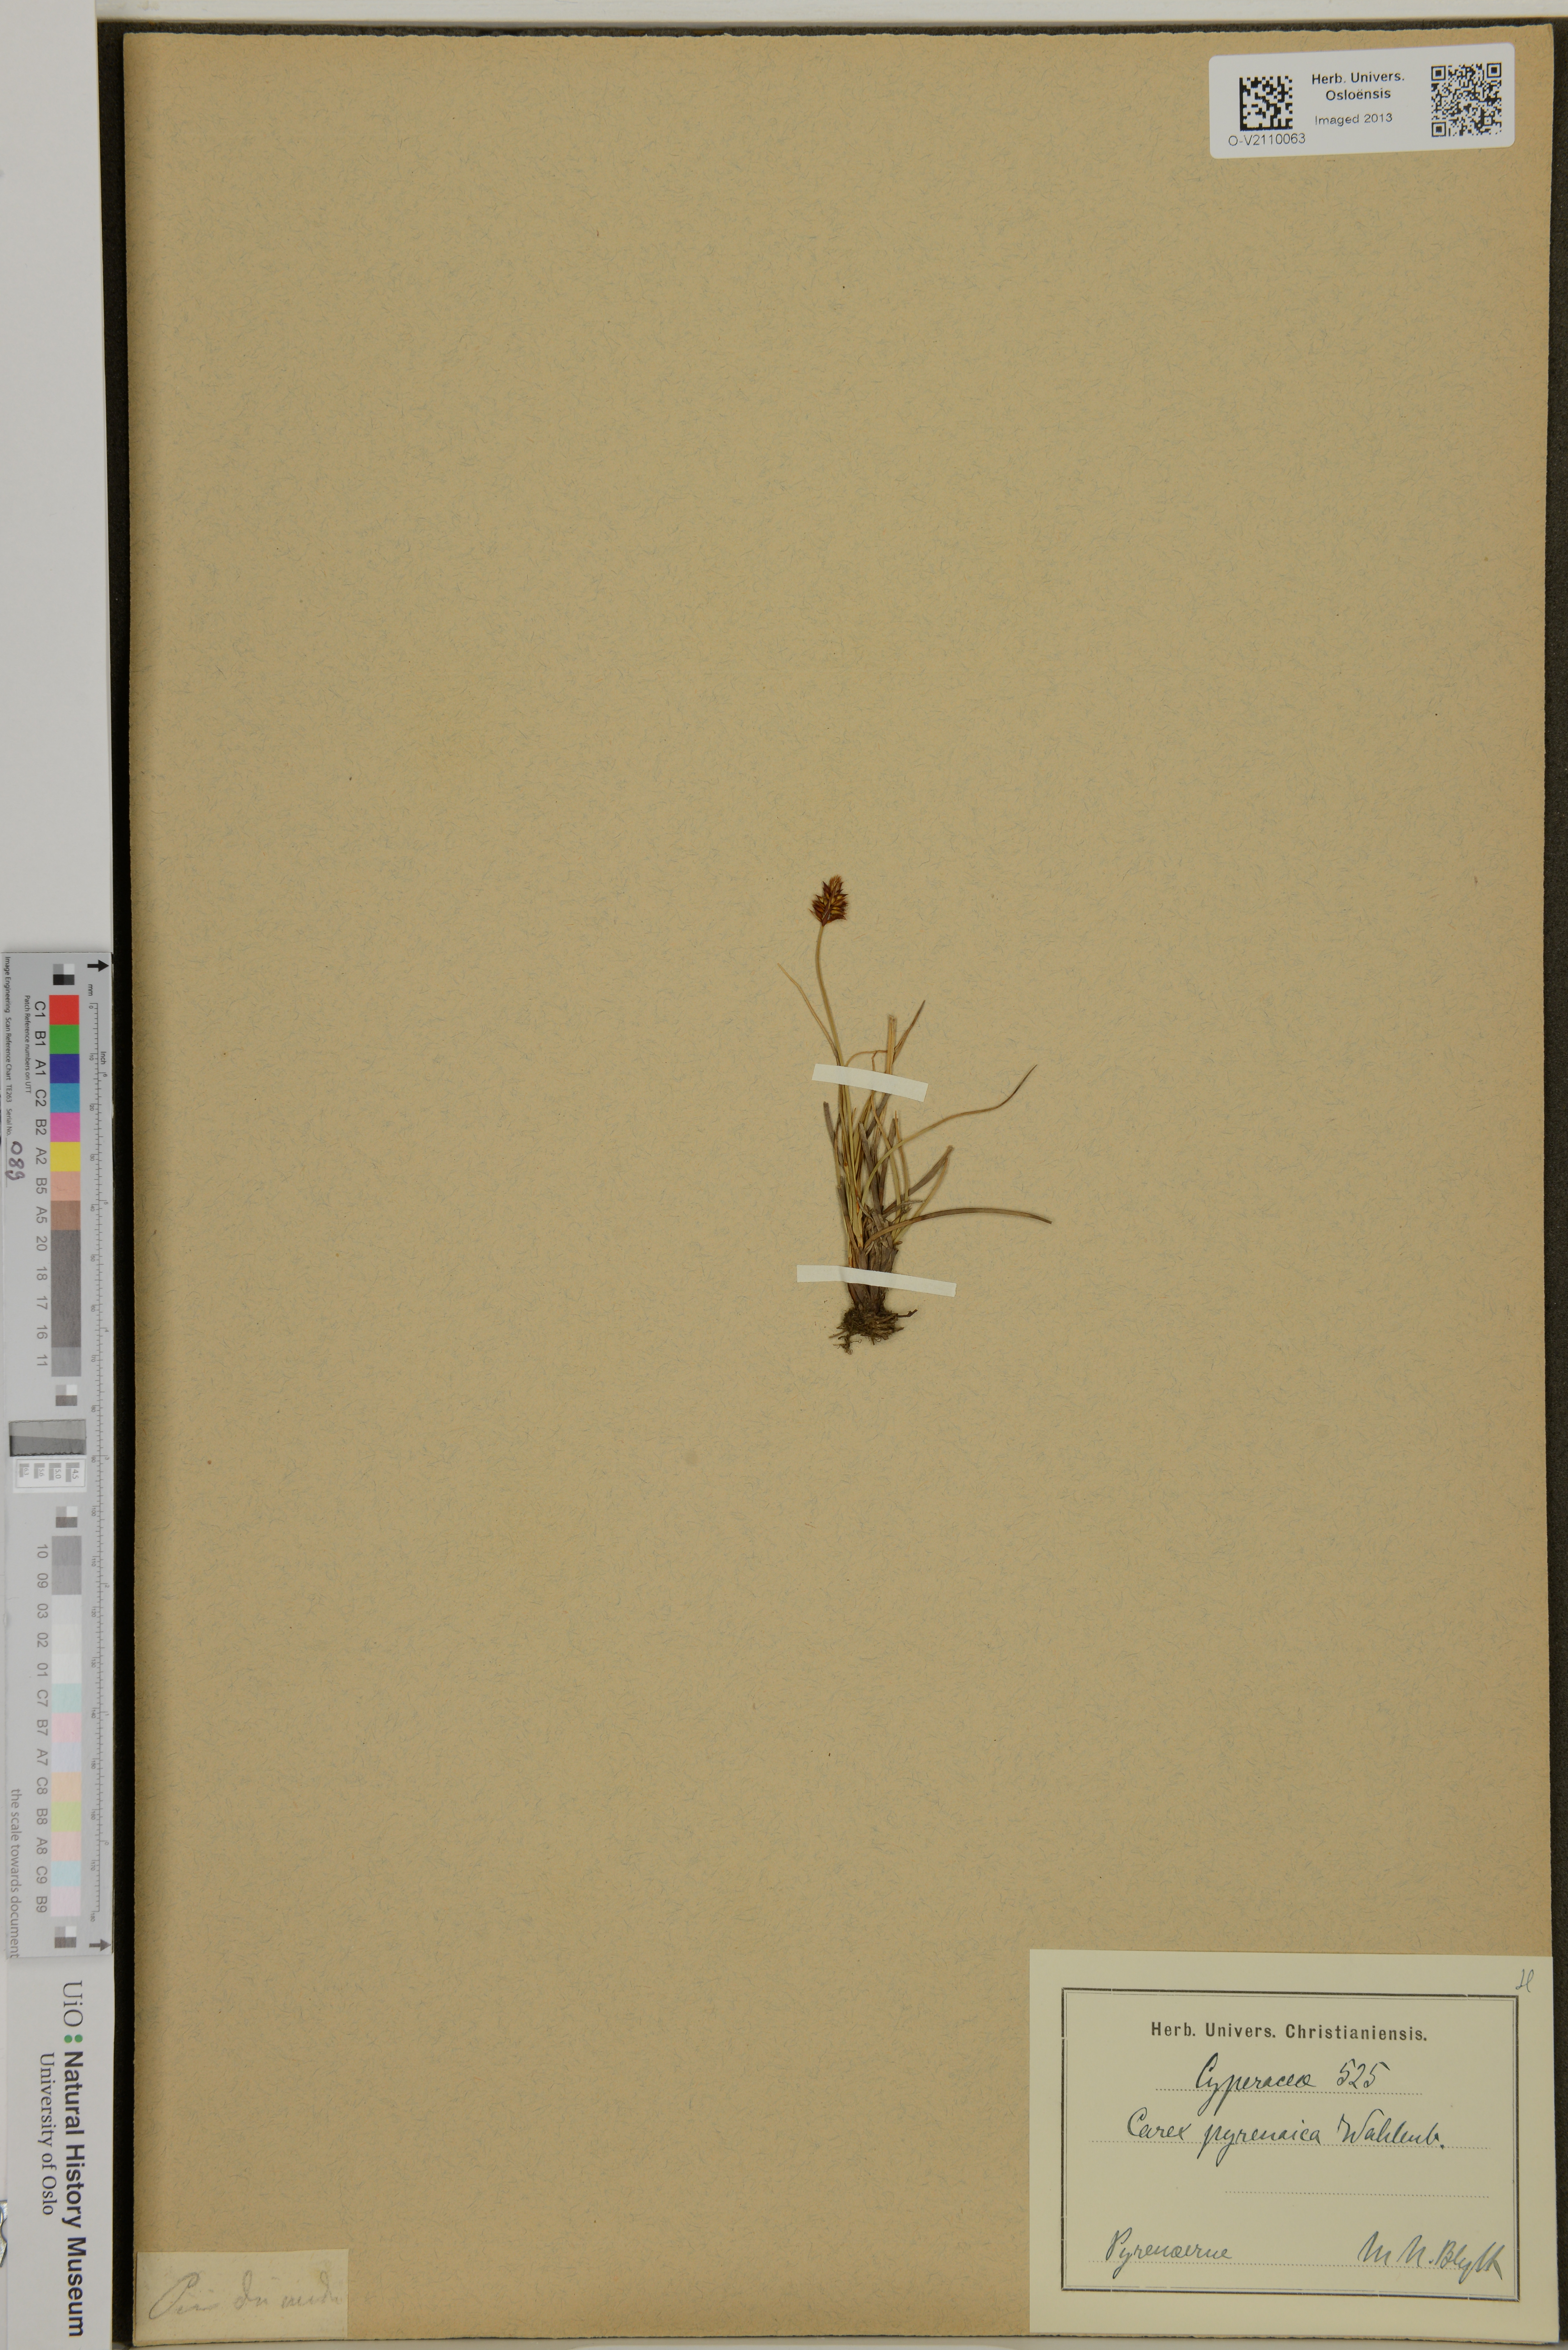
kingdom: Plantae
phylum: Tracheophyta
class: Liliopsida
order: Poales
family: Cyperaceae
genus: Carex
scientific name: Carex pyrenaica
